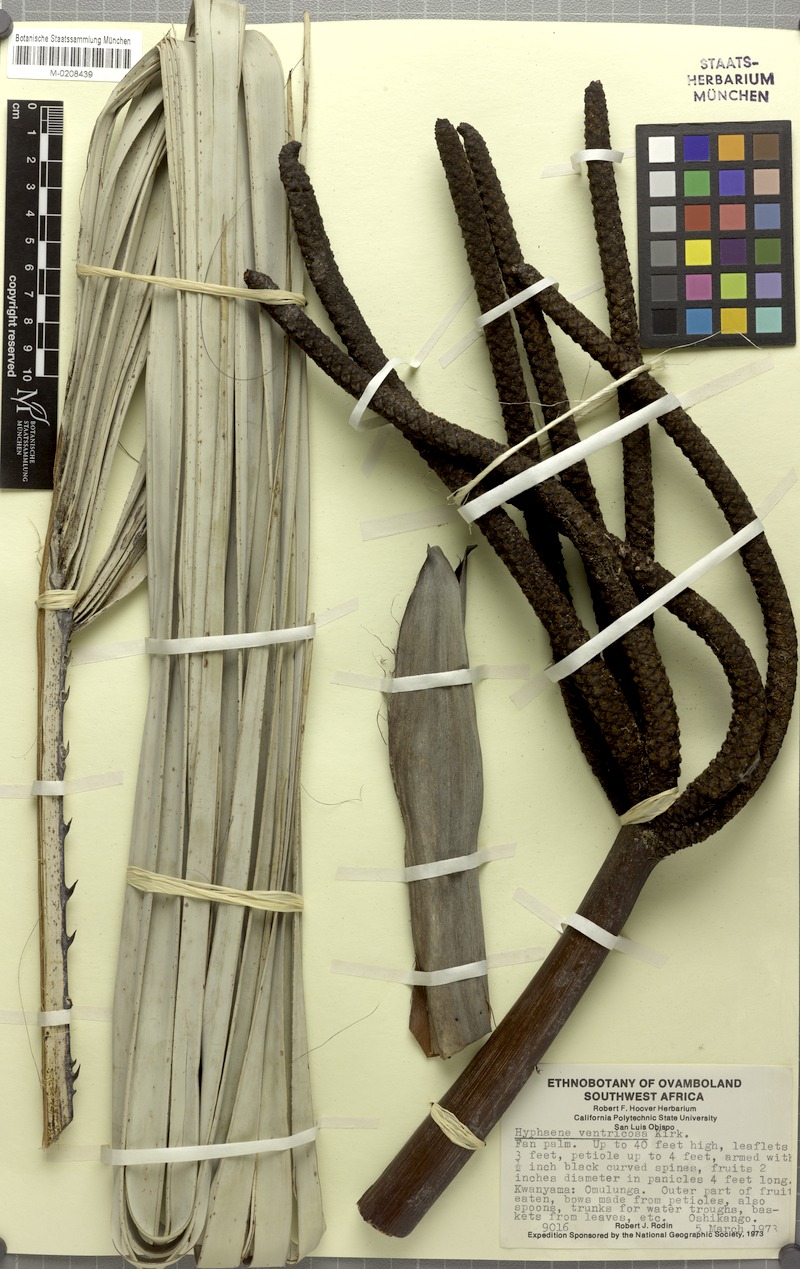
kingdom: Plantae
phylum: Tracheophyta
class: Liliopsida
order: Arecales
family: Arecaceae
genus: Hyphaene
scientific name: Hyphaene petersiana
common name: African ivory nut palm
